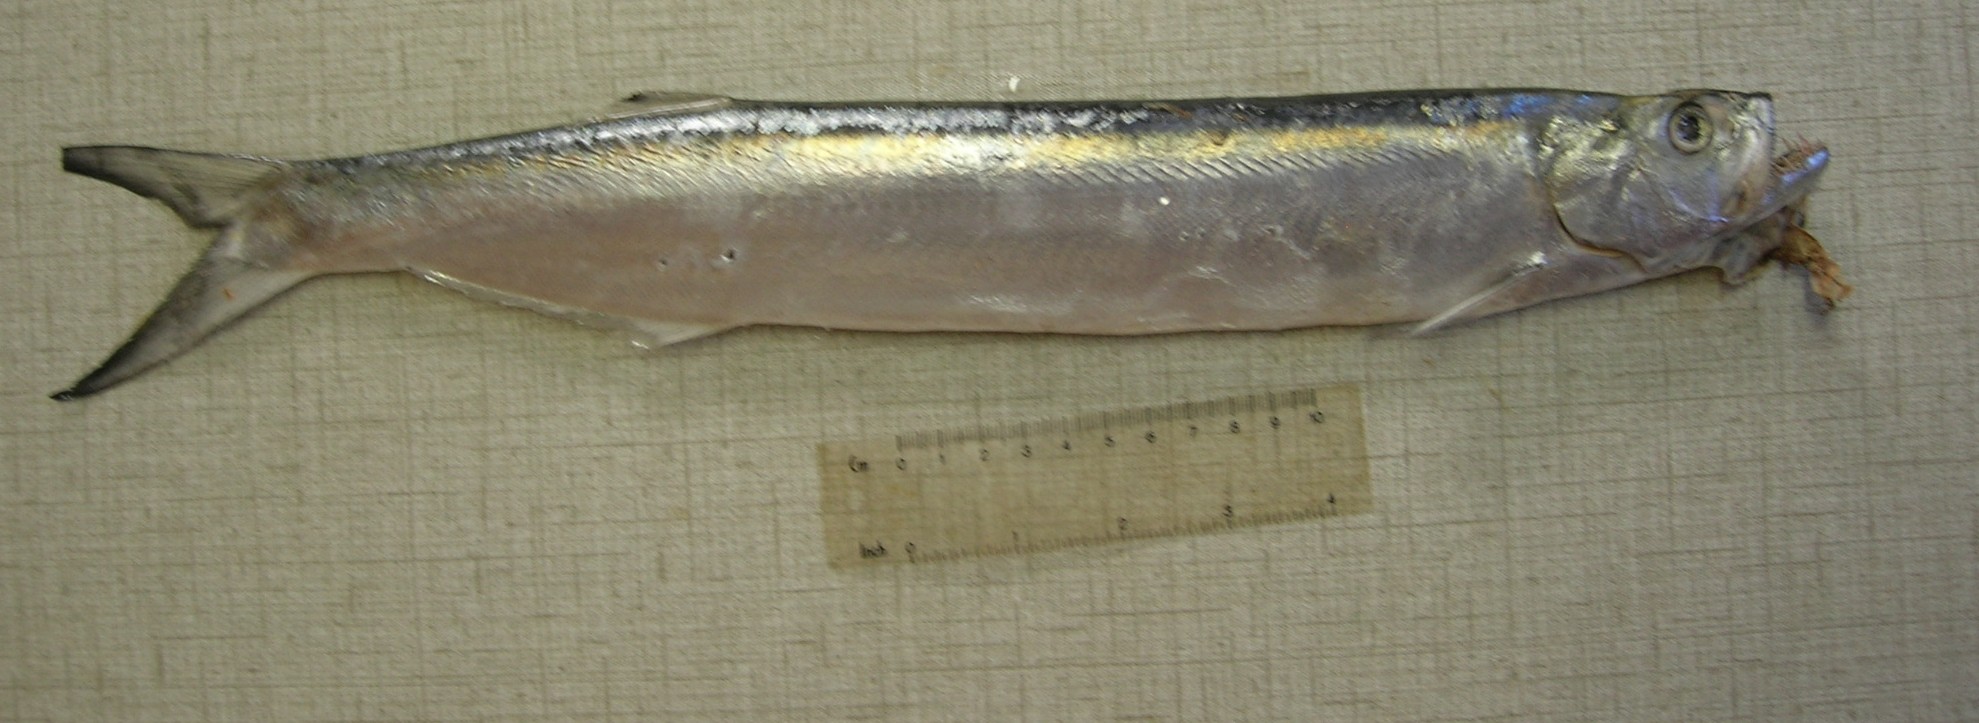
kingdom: Animalia
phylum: Chordata
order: Clupeiformes
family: Chirocentridae
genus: Chirocentrus
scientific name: Chirocentrus dorab
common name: Wolf herring
